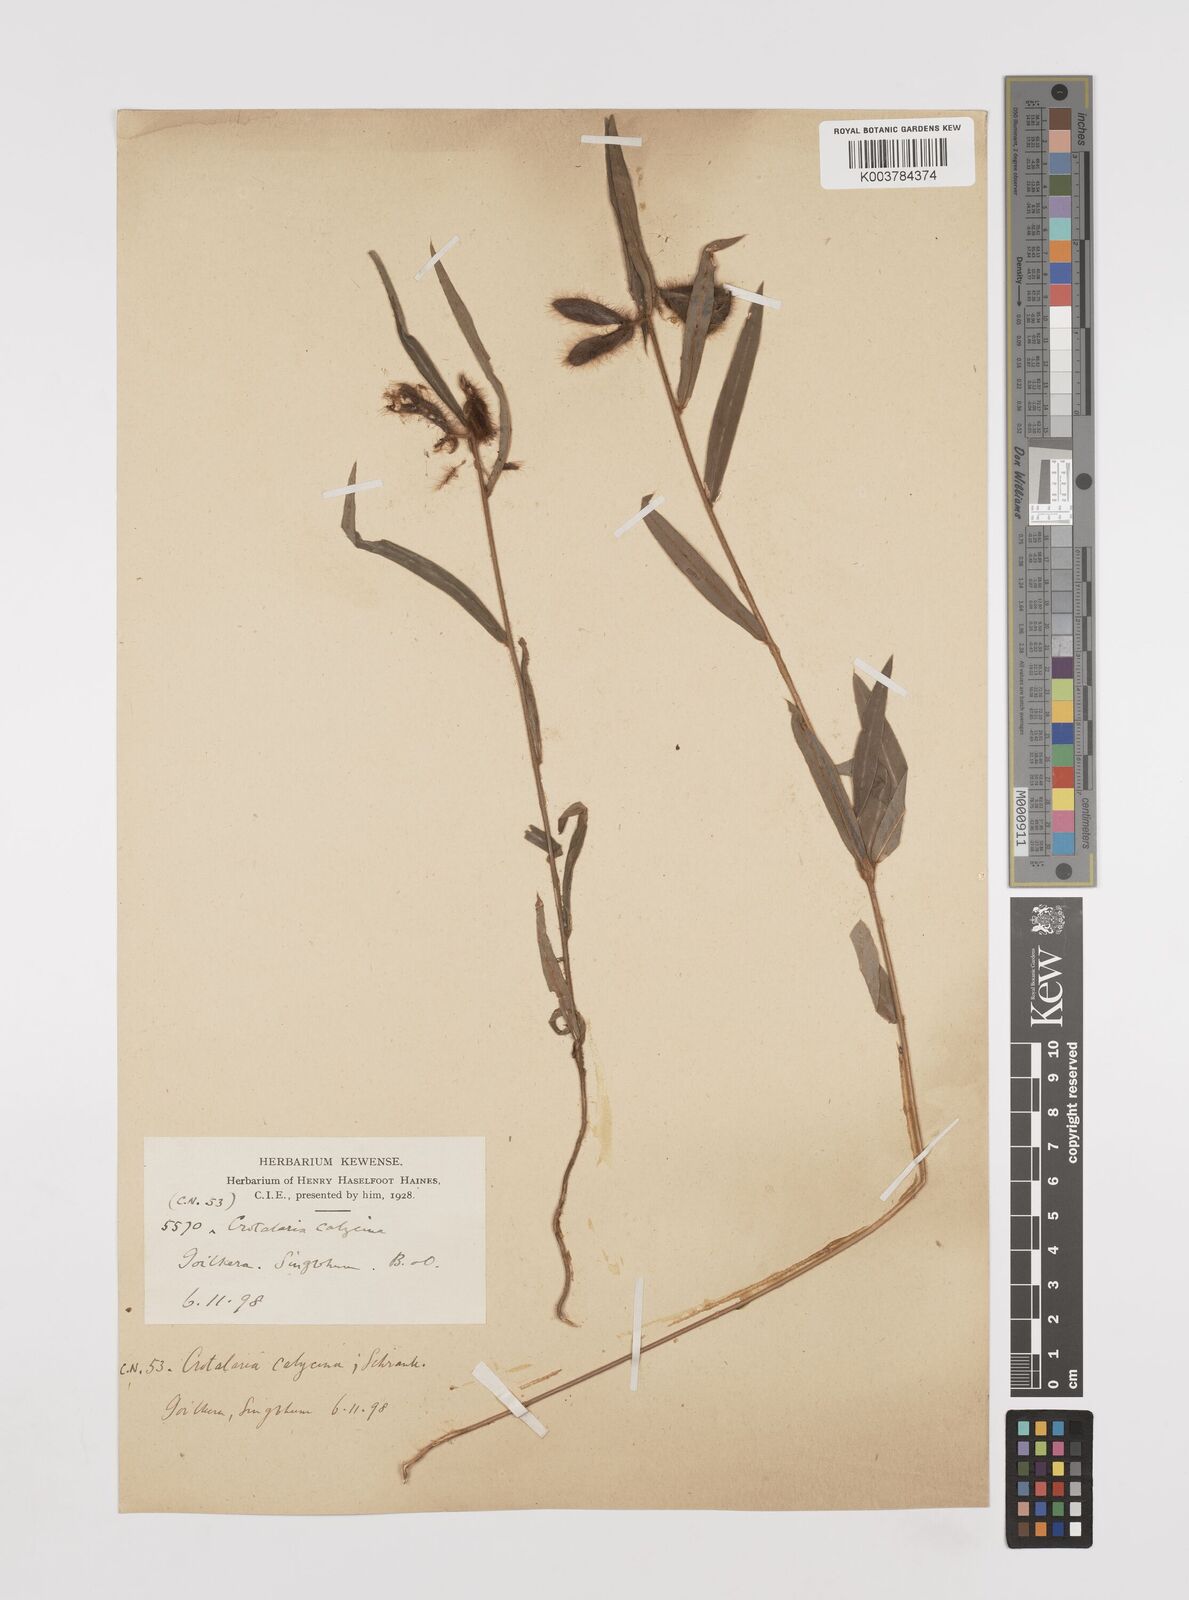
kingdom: Plantae
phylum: Tracheophyta
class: Magnoliopsida
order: Fabales
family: Fabaceae
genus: Crotalaria
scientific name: Crotalaria calycina
